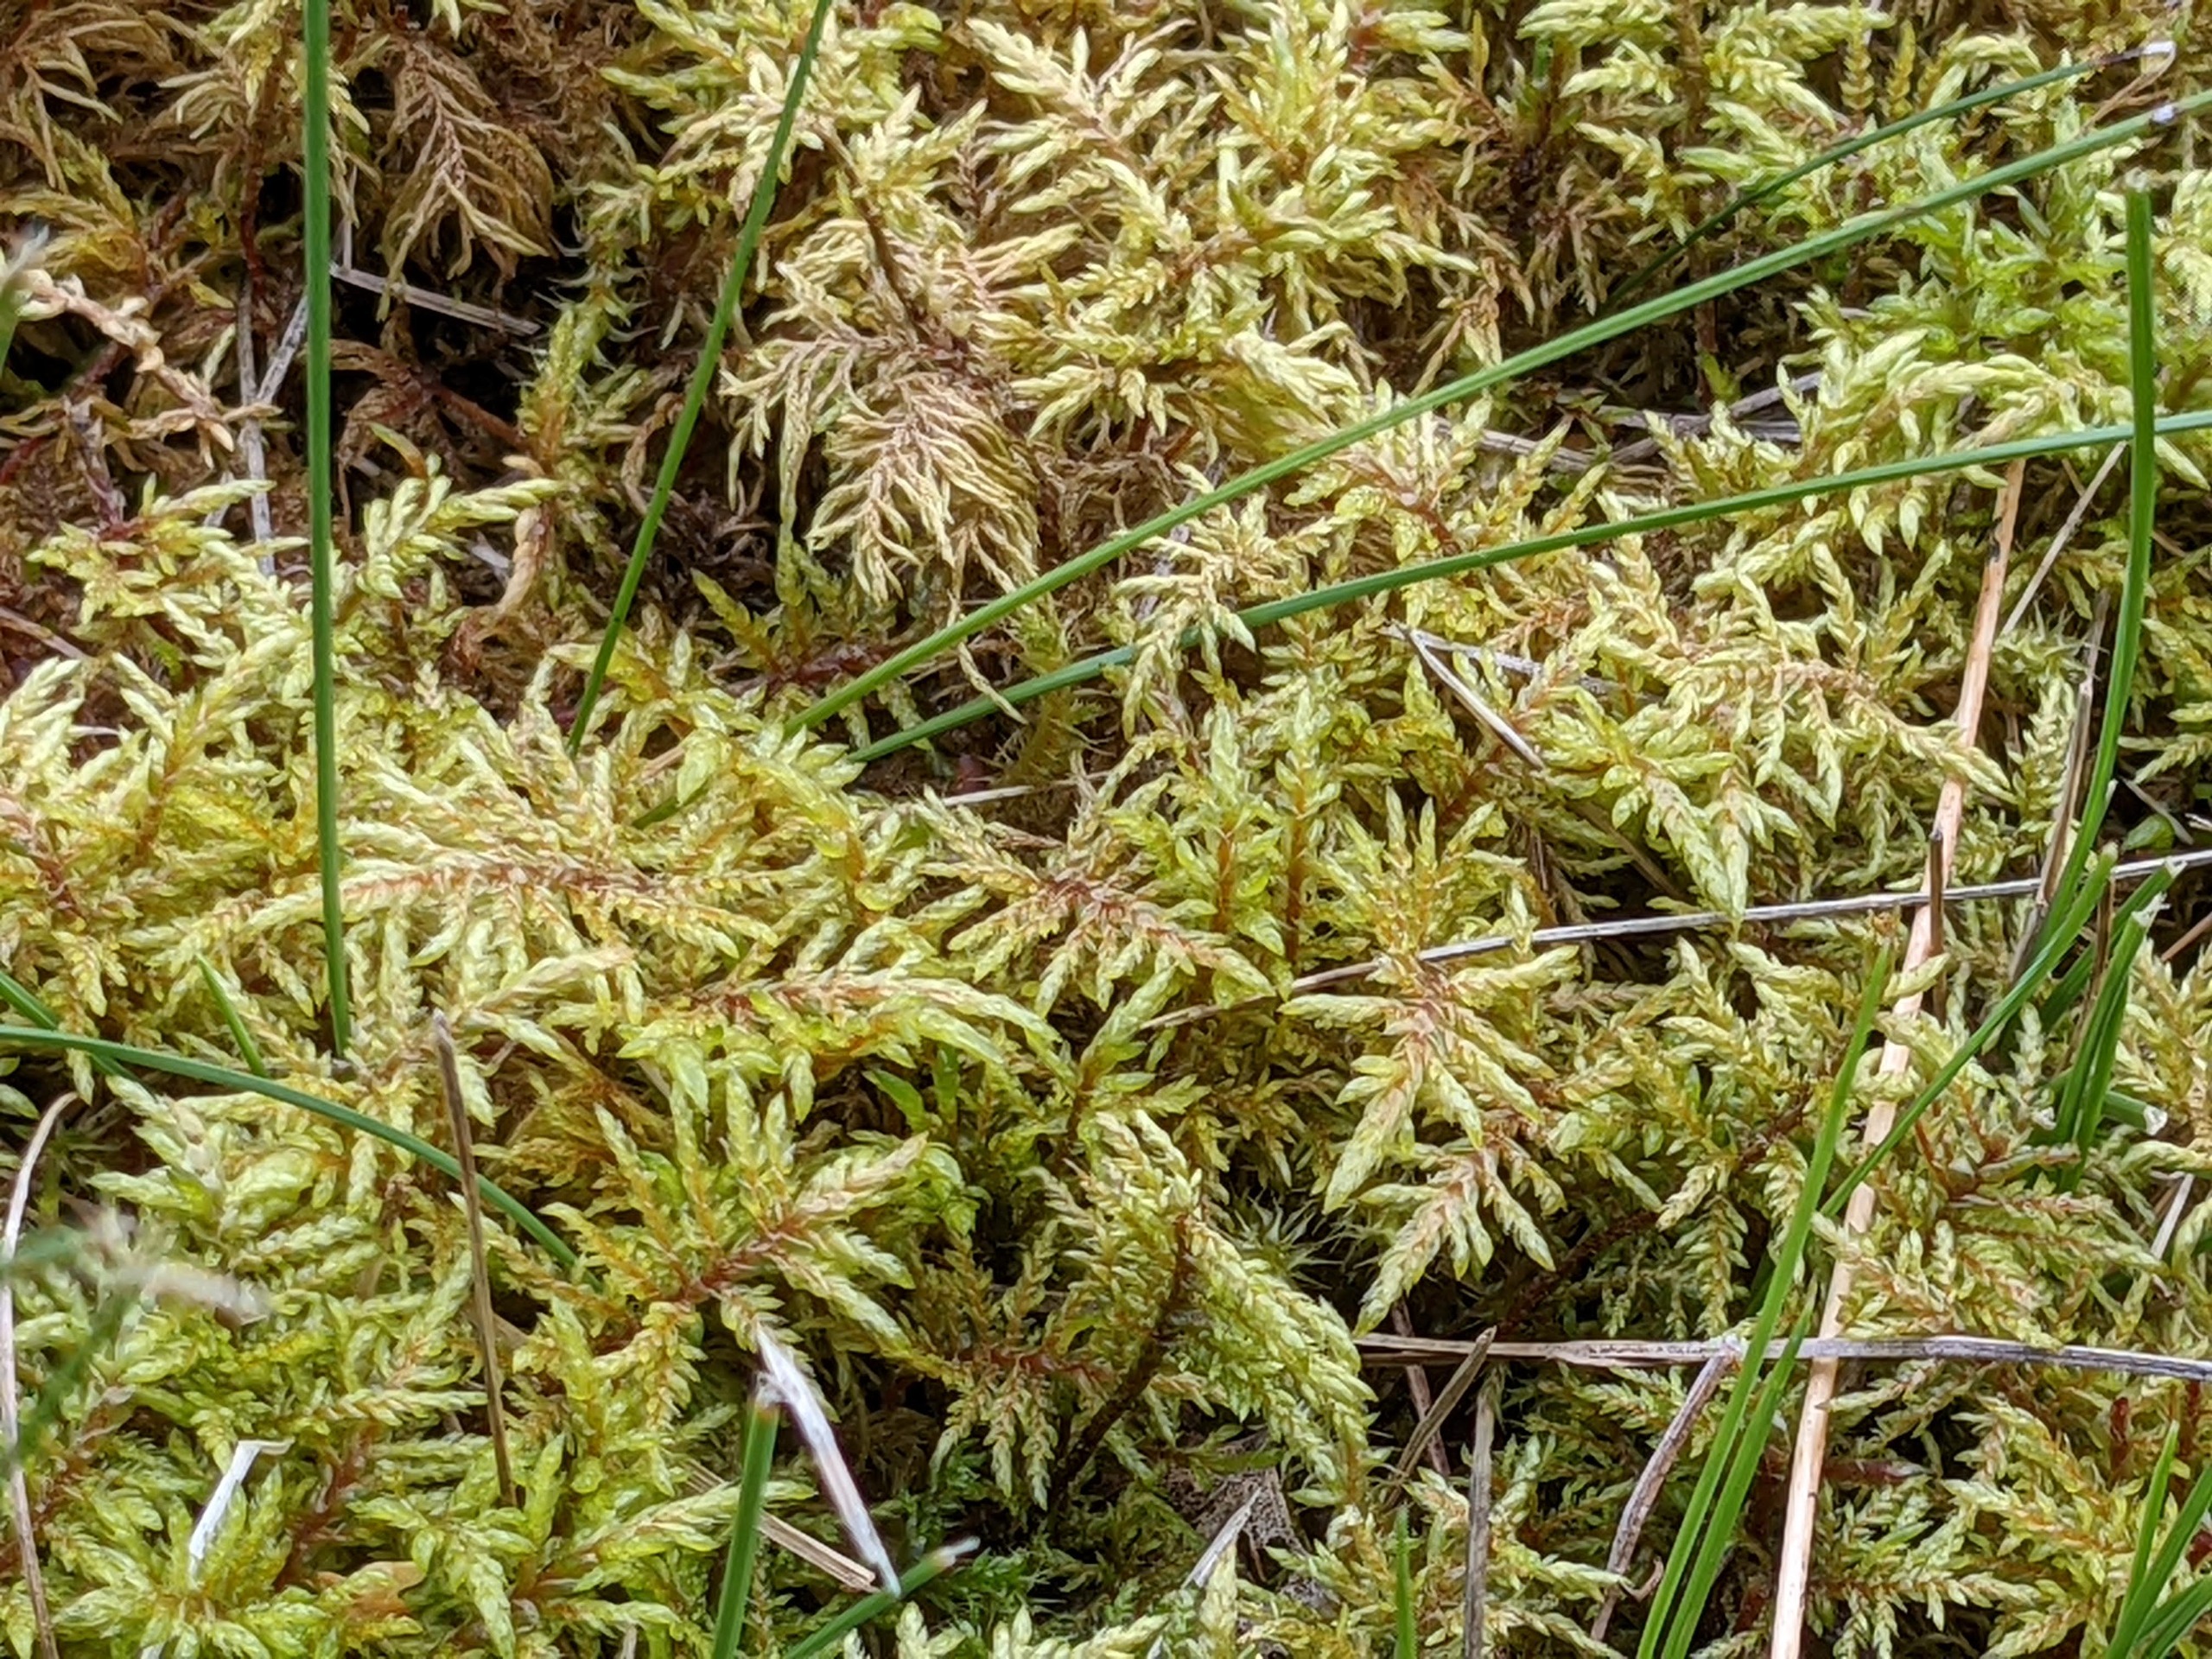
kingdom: Plantae
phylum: Bryophyta
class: Bryopsida
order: Hypnales
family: Hylocomiaceae
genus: Hylocomium
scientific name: Hylocomium splendens
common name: Almindelig etagemos
